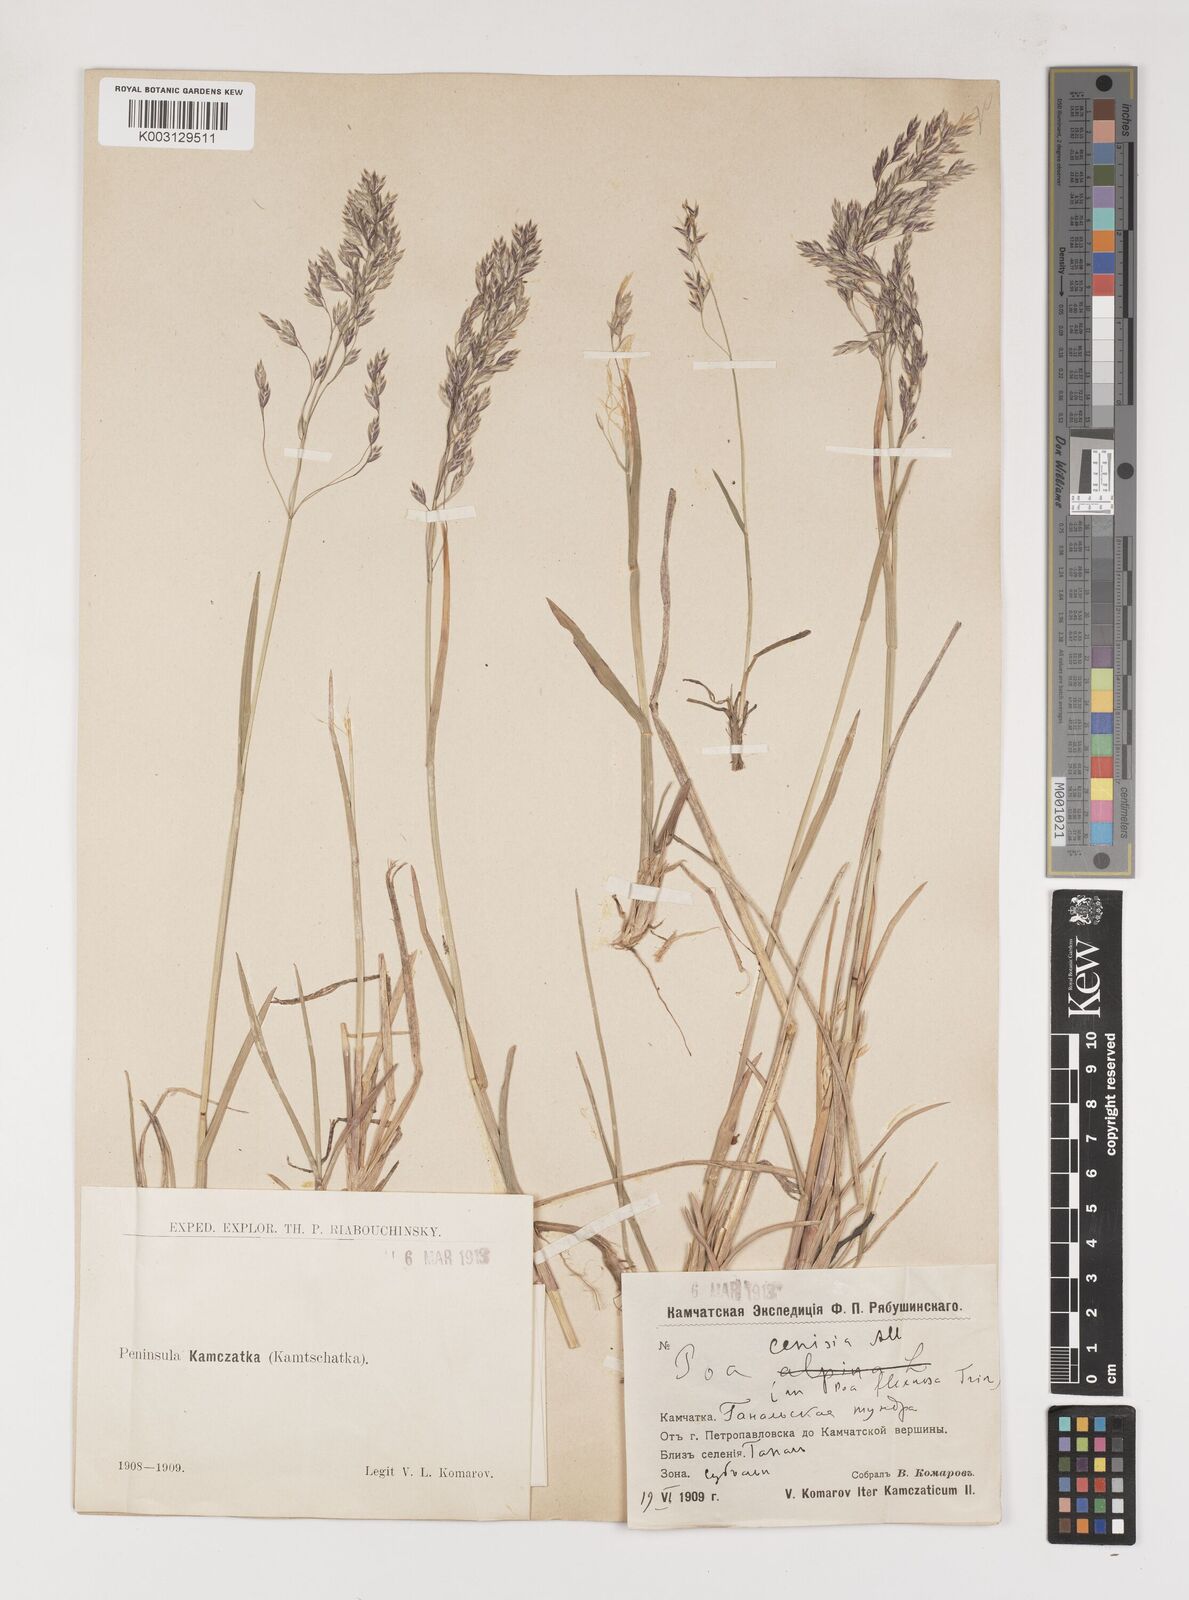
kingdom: Plantae
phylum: Tracheophyta
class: Liliopsida
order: Poales
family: Poaceae
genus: Poa
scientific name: Poa
